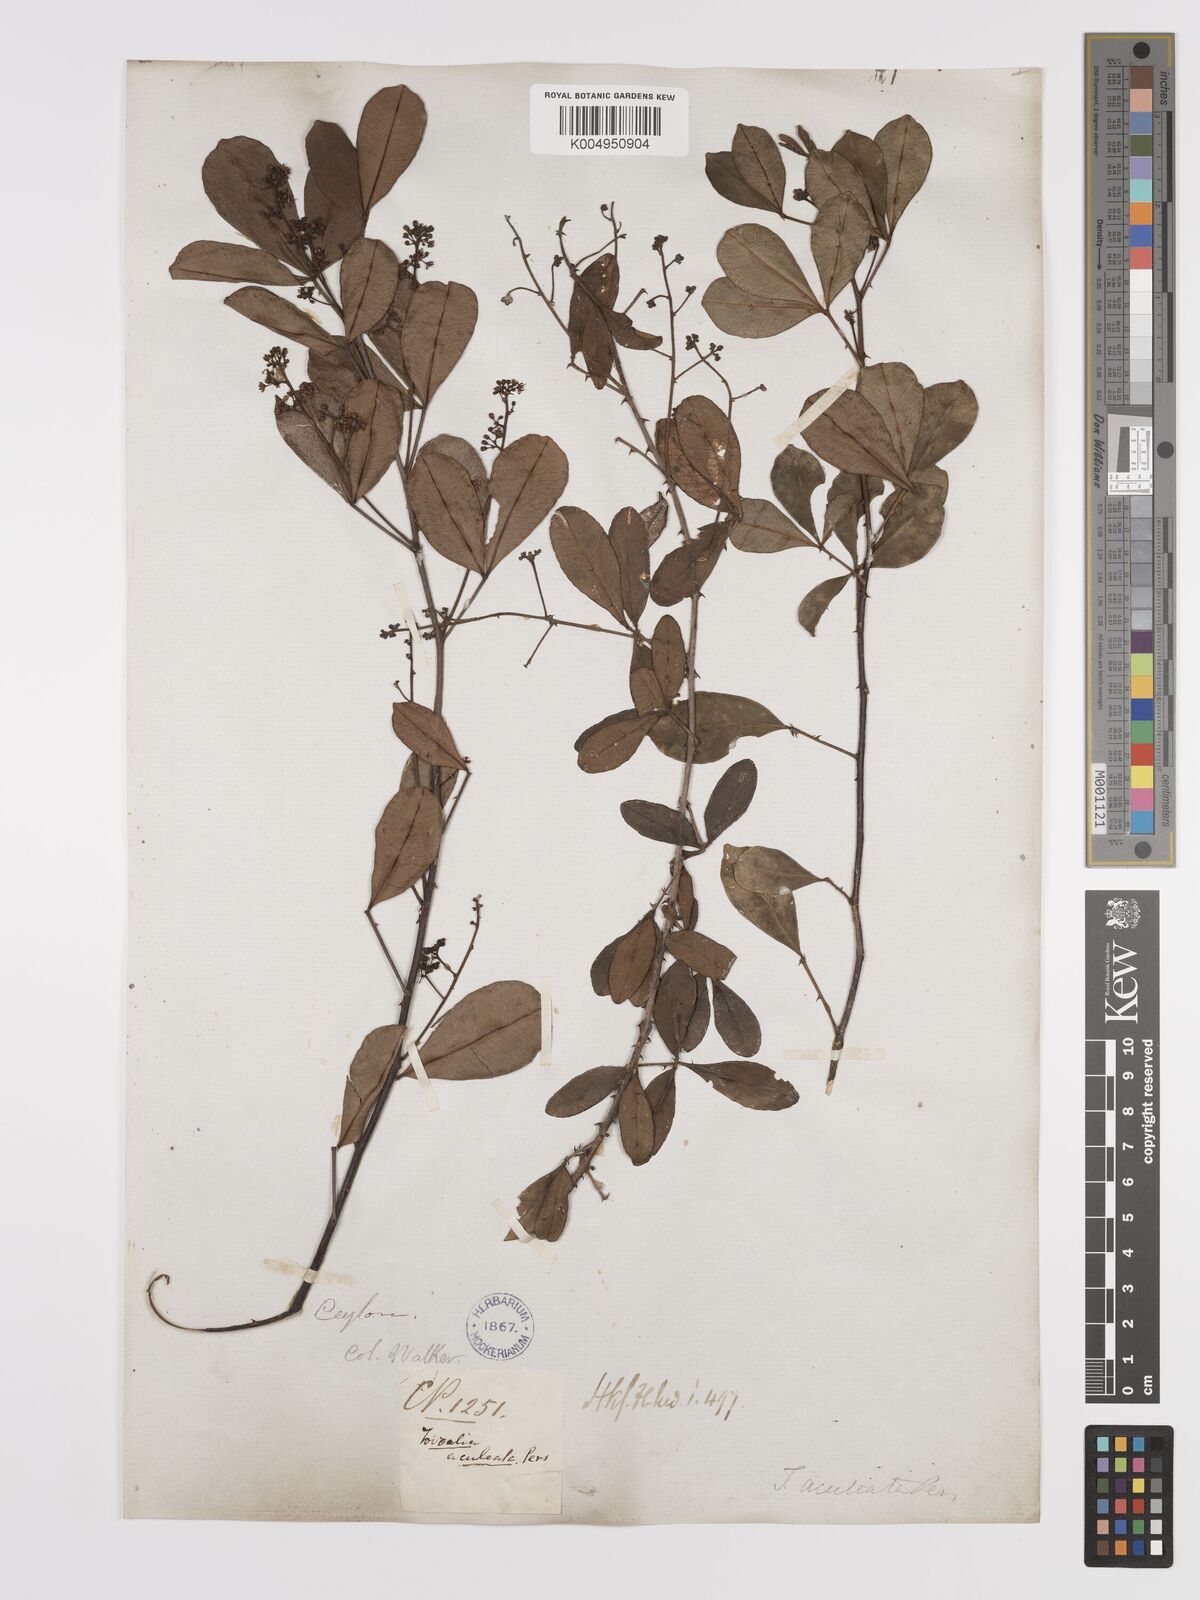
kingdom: Plantae
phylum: Tracheophyta
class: Magnoliopsida
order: Sapindales
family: Rutaceae
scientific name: Rutaceae
